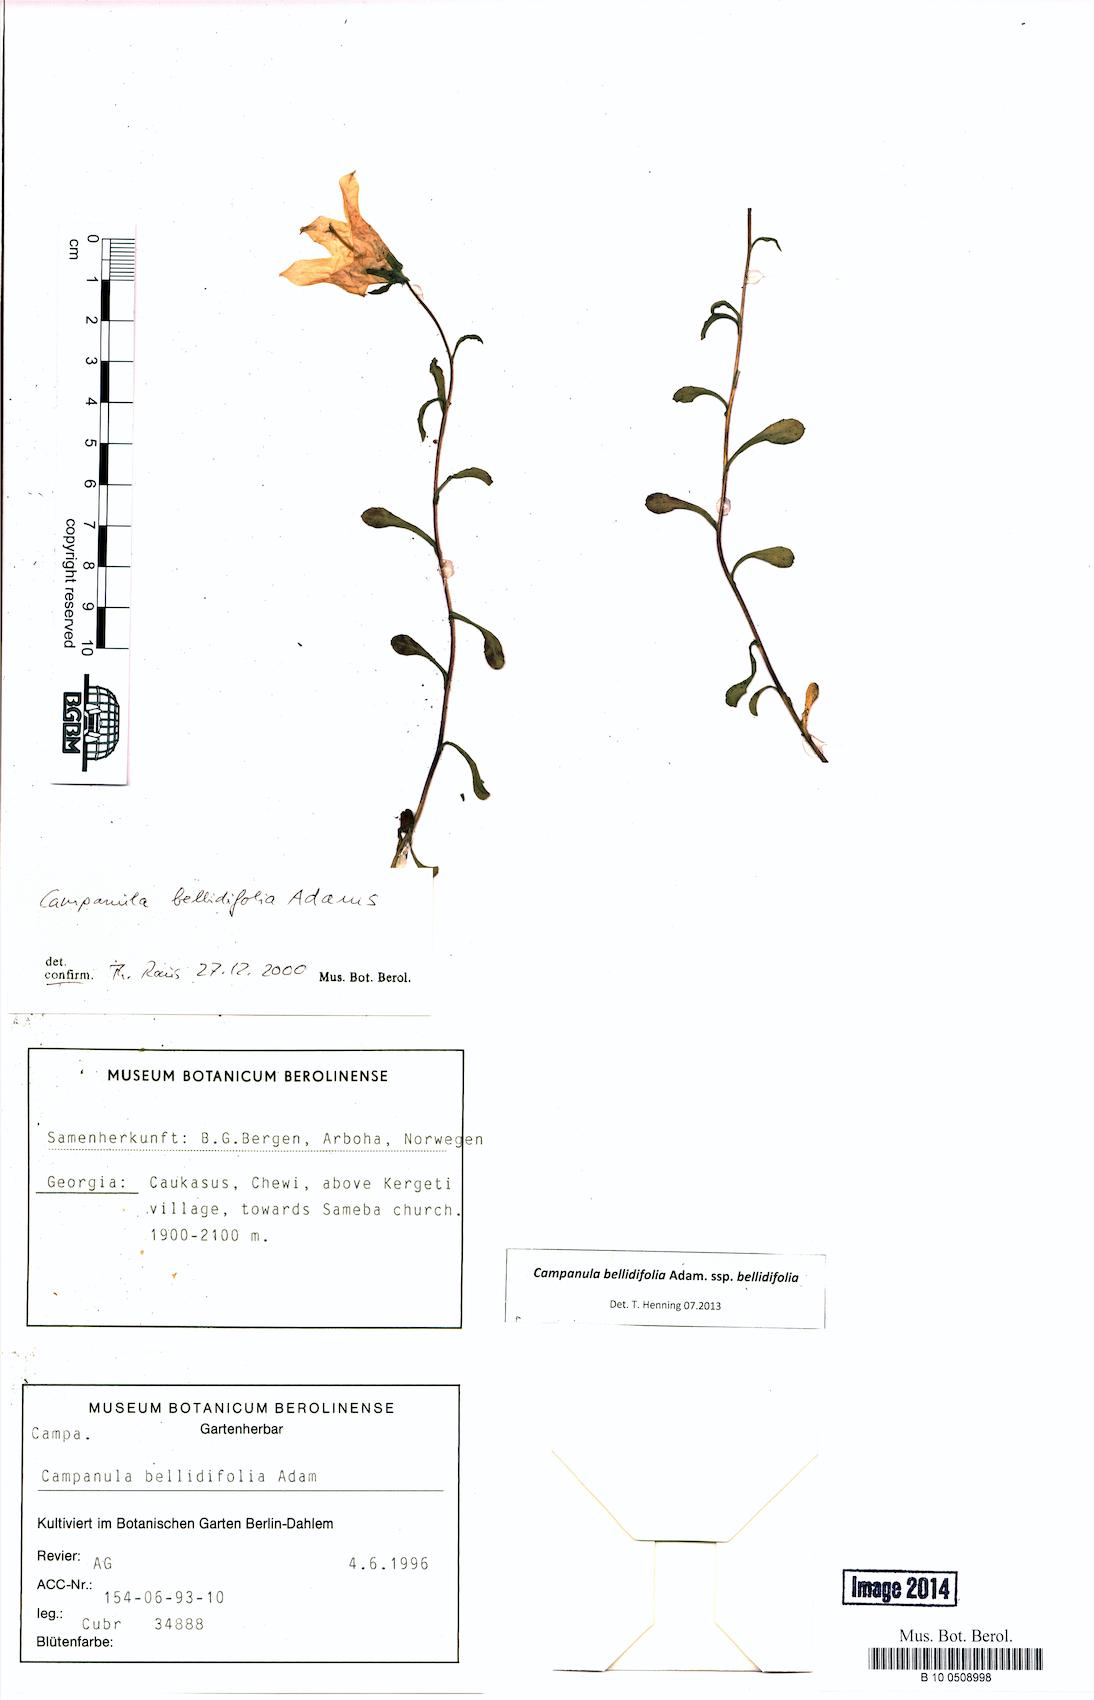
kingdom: Plantae
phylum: Tracheophyta
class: Magnoliopsida
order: Asterales
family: Campanulaceae
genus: Campanula
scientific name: Campanula bellidifolia
